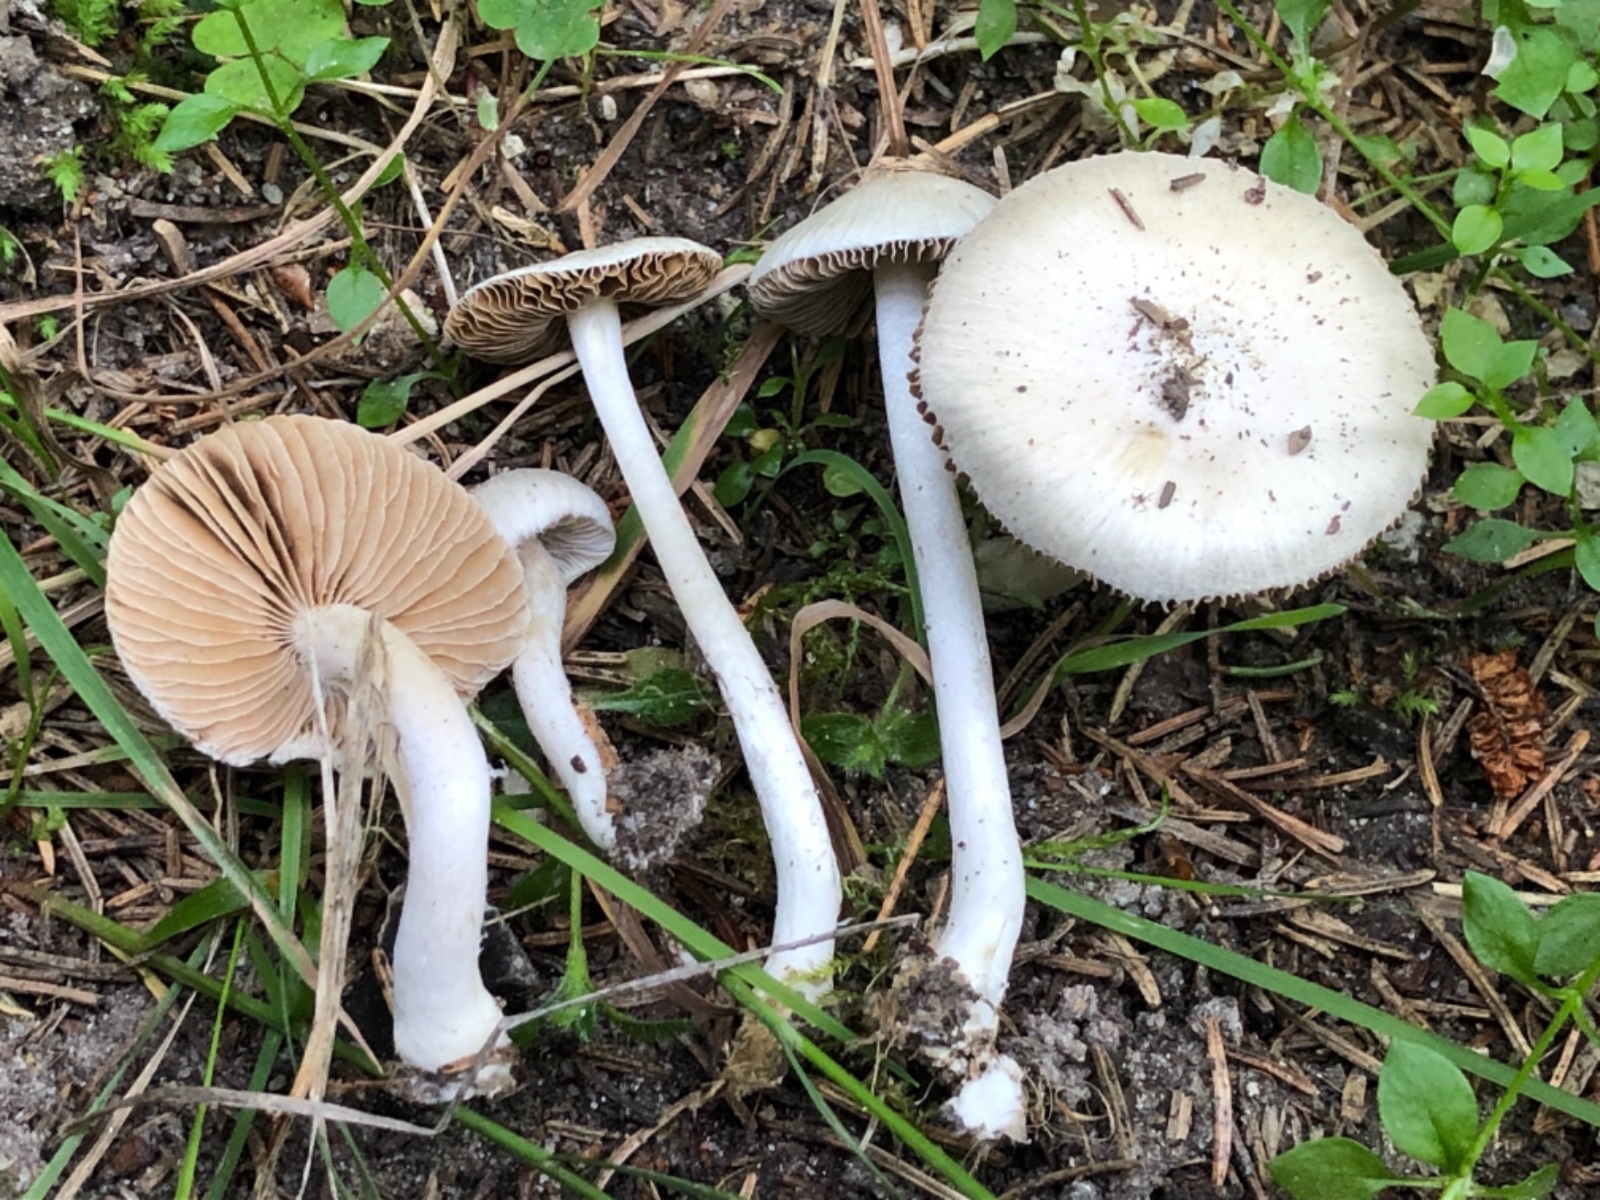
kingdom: Fungi
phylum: Basidiomycota
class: Agaricomycetes
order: Agaricales
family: Inocybaceae
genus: Inocybe
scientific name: Inocybe
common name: almindelig trævlhat
